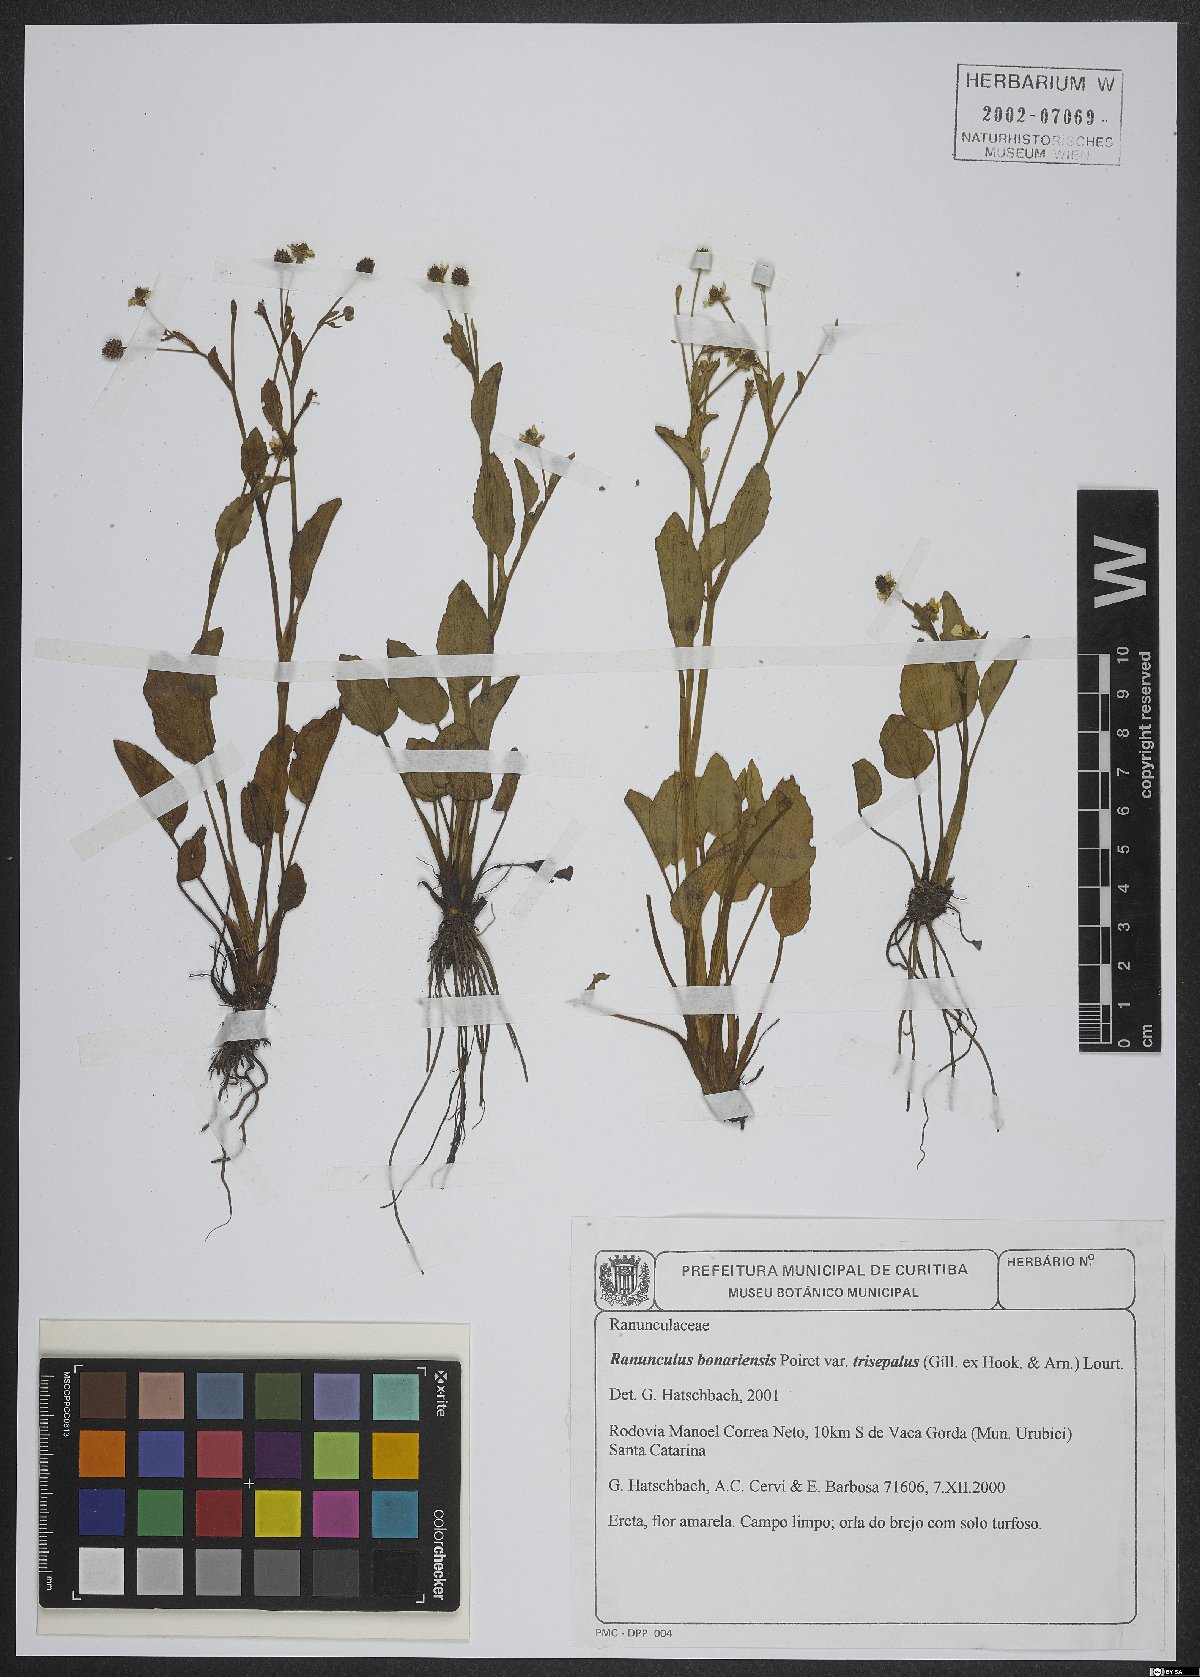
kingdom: Plantae
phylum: Tracheophyta
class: Magnoliopsida
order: Ranunculales
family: Ranunculaceae
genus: Ranunculus
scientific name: Ranunculus bonariensis
